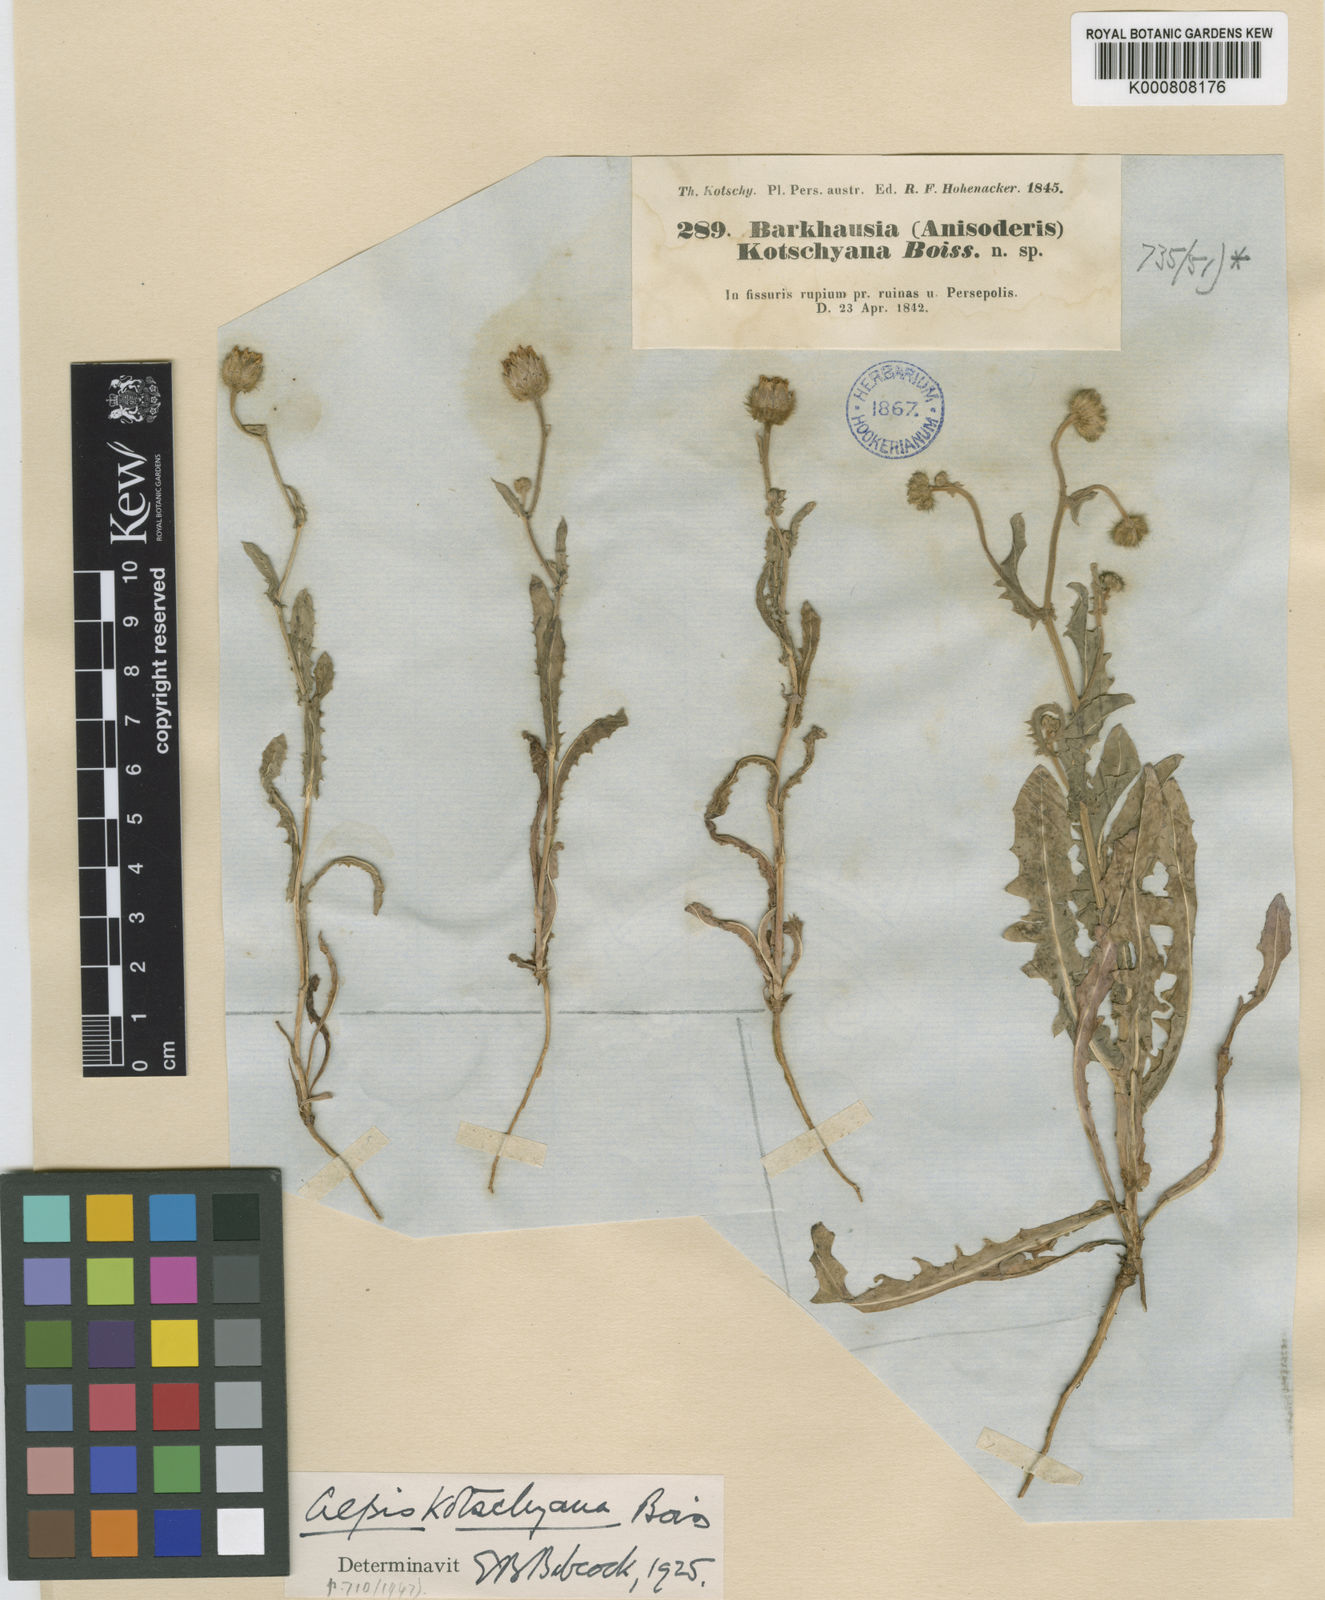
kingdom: Plantae
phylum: Tracheophyta
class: Magnoliopsida
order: Asterales
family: Asteraceae
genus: Crepis
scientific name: Crepis kotschyana
